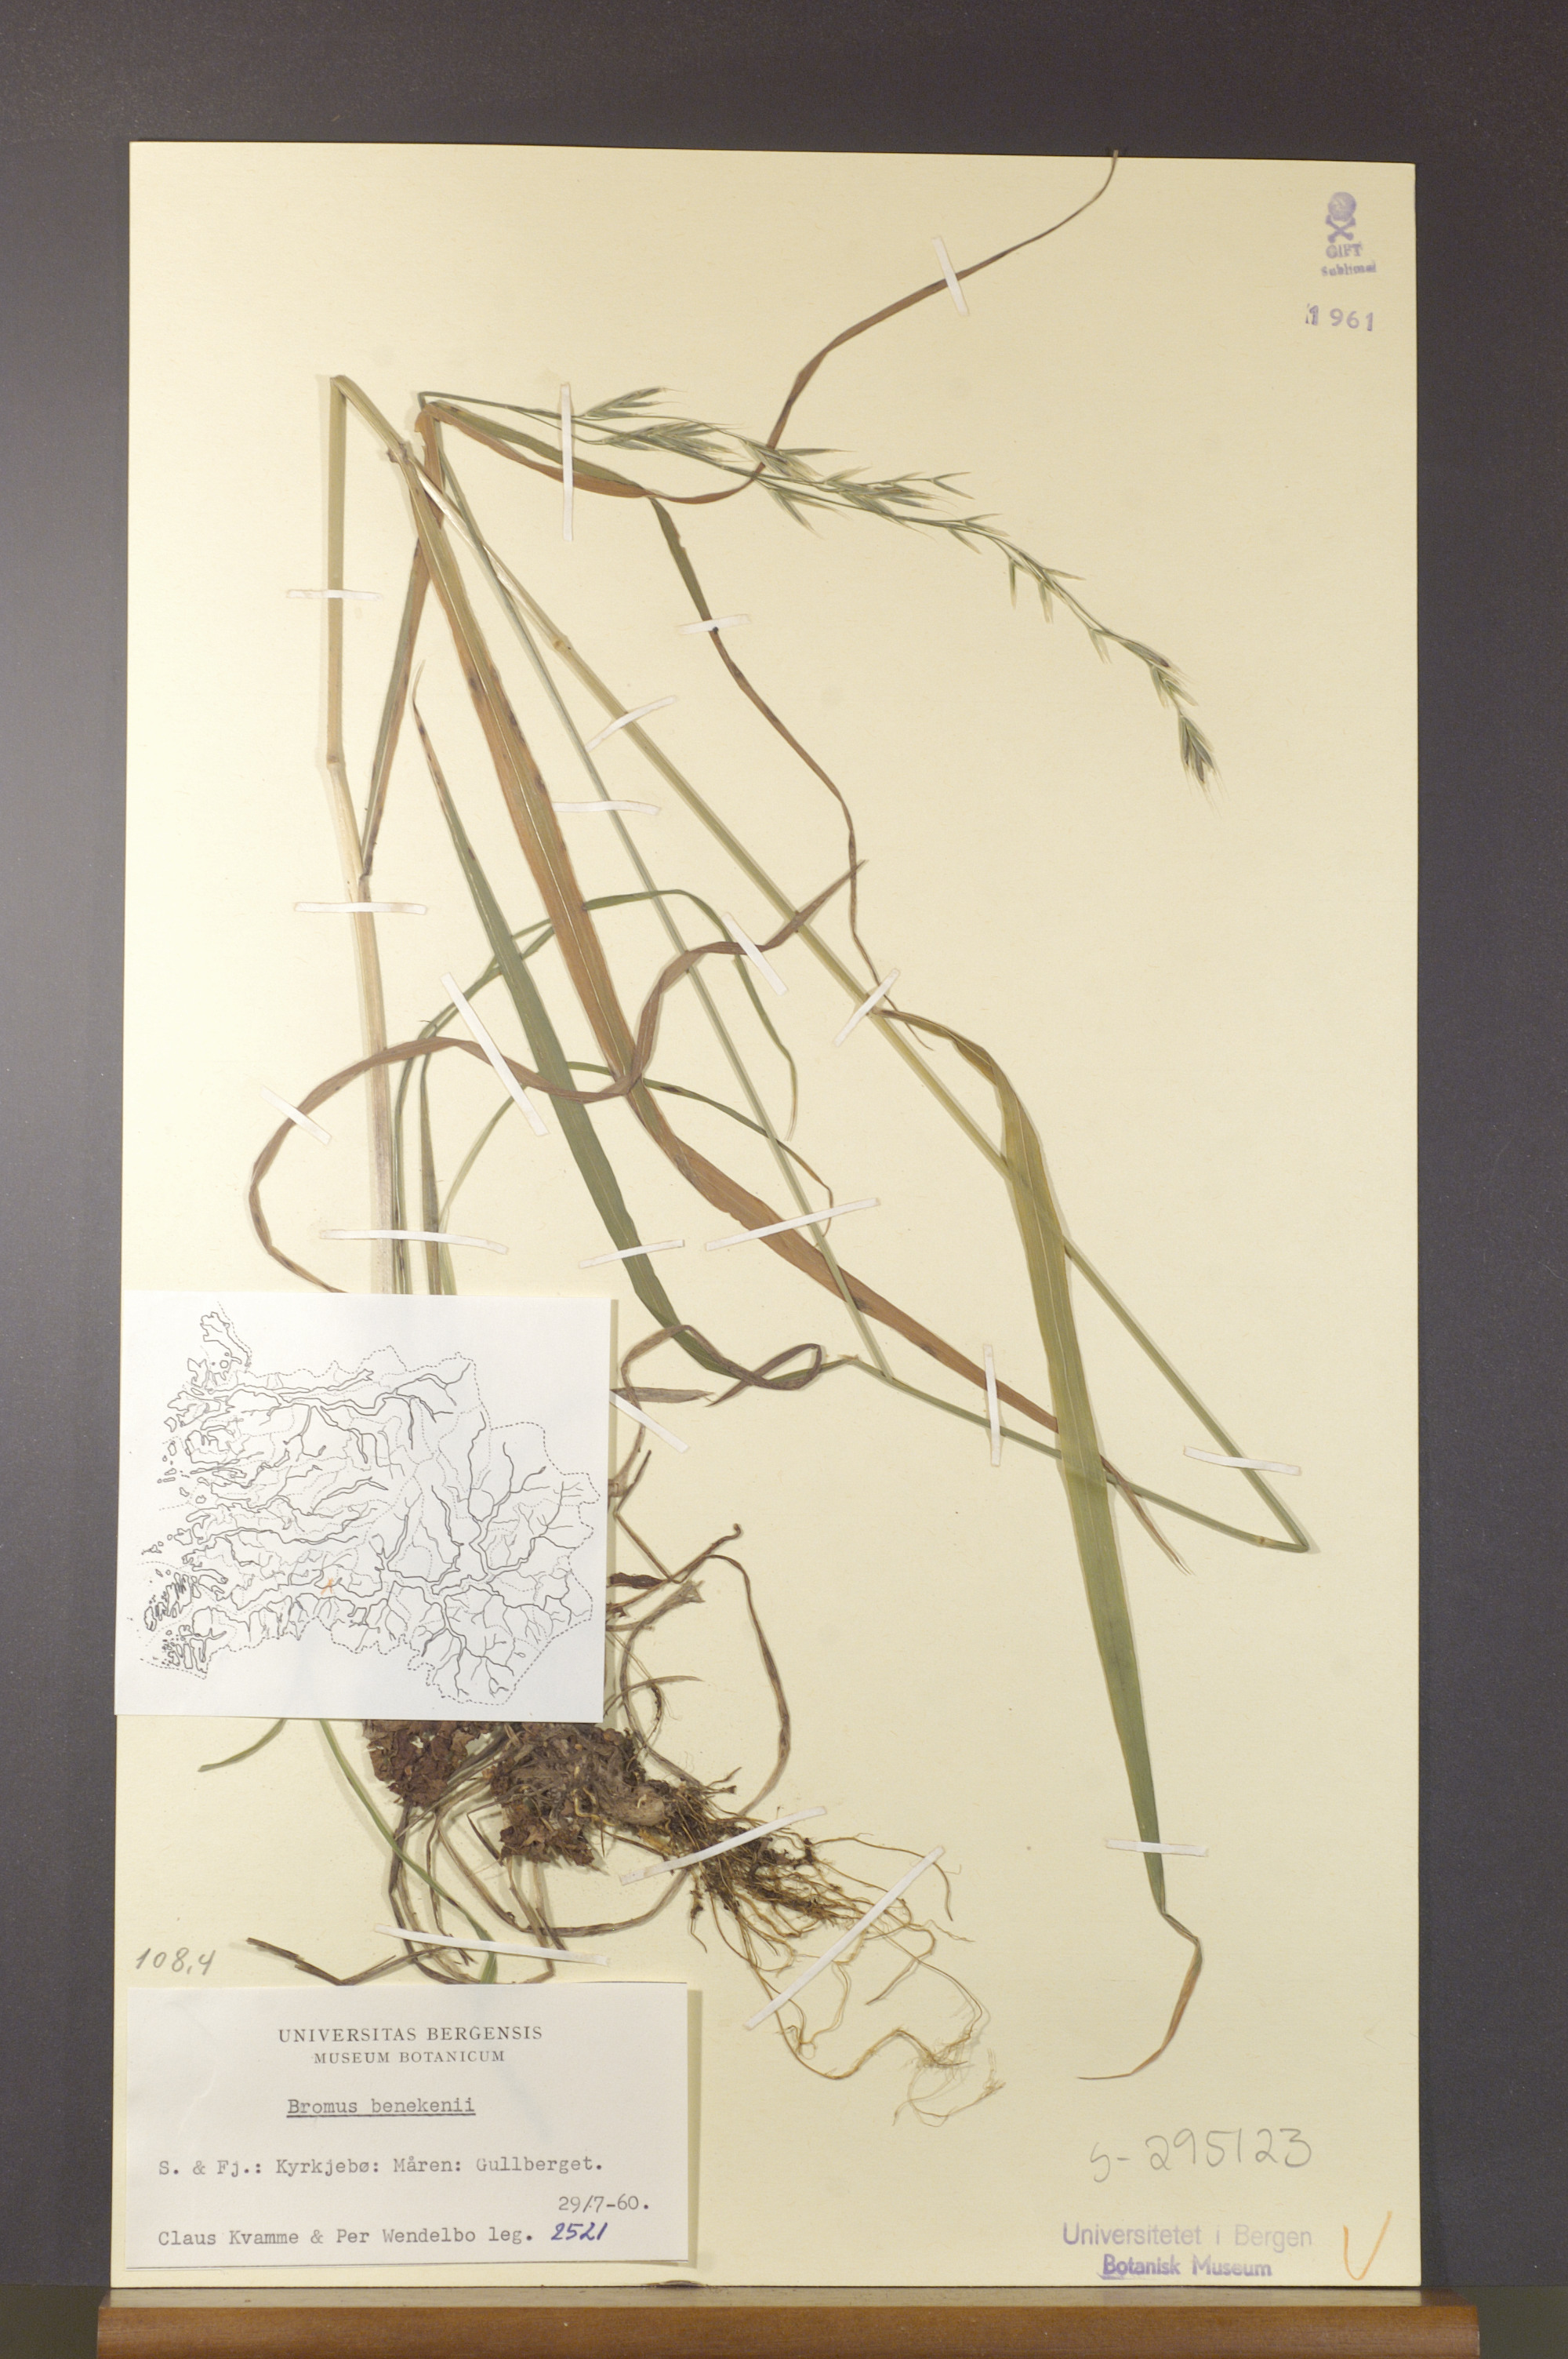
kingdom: Plantae
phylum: Tracheophyta
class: Liliopsida
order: Poales
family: Poaceae
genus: Bromus
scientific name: Bromus benekenii
